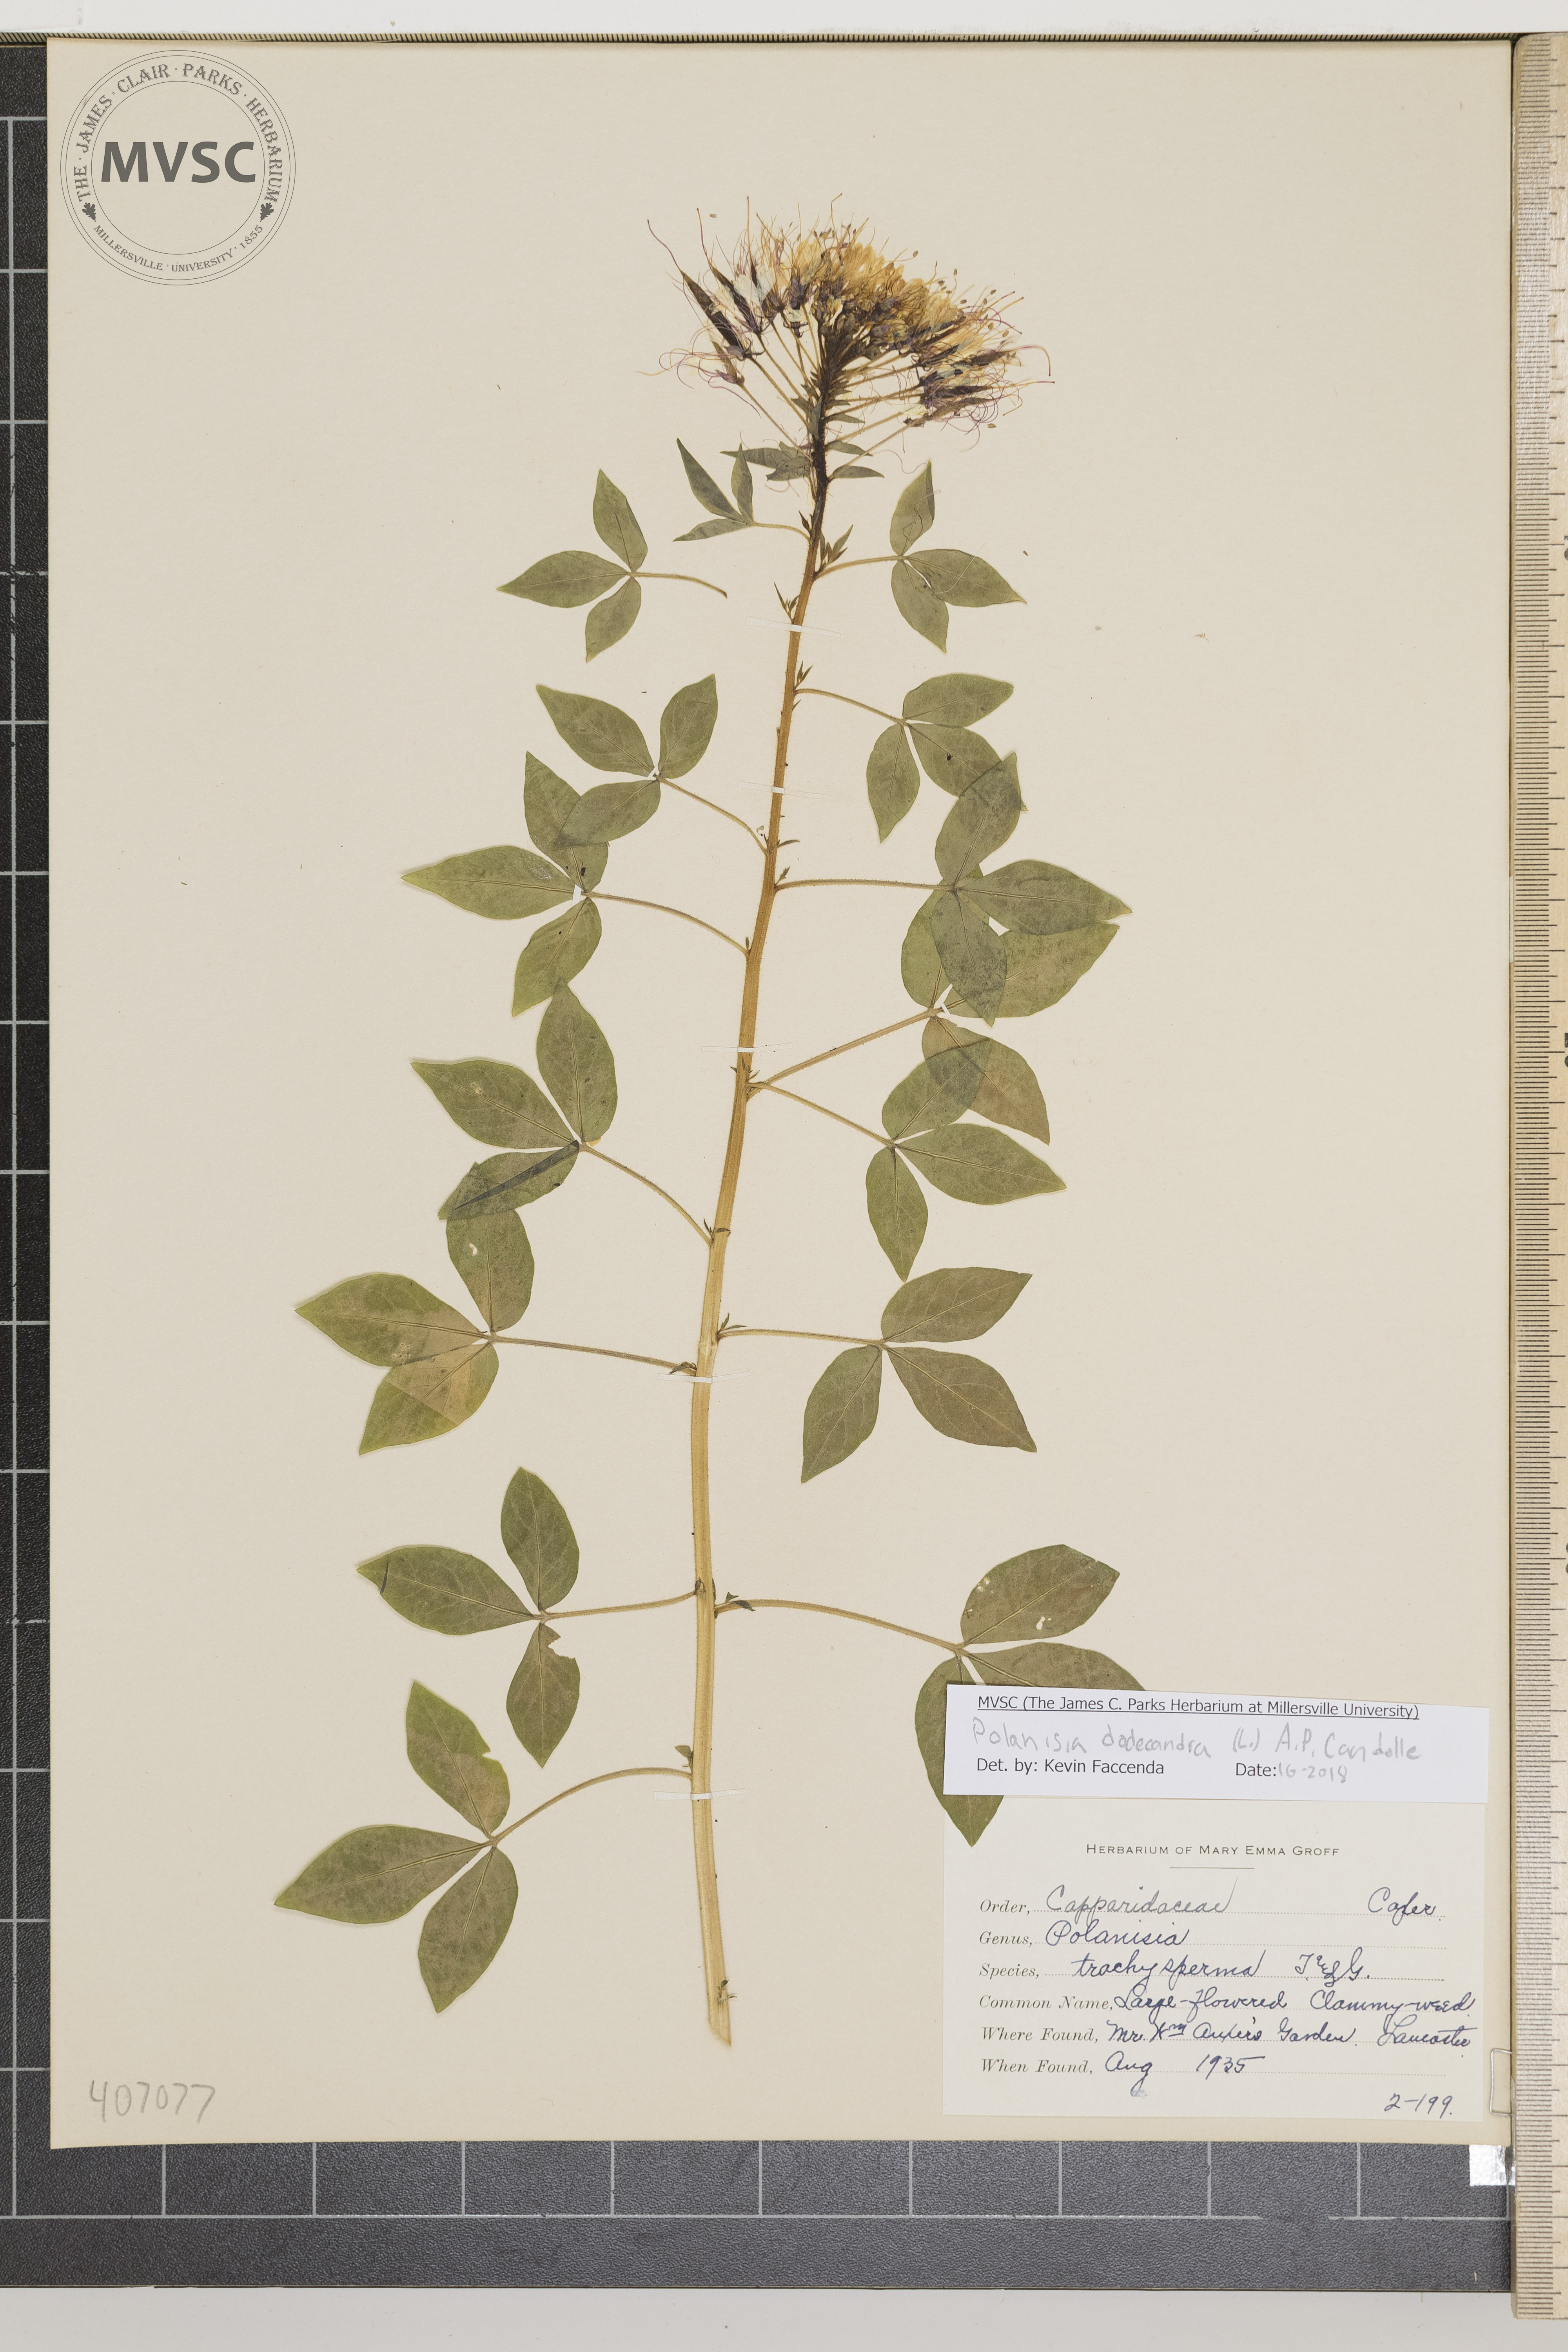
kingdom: Plantae
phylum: Tracheophyta
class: Magnoliopsida
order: Brassicales
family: Cleomaceae
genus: Polanisia
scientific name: Polanisia dodecandra
